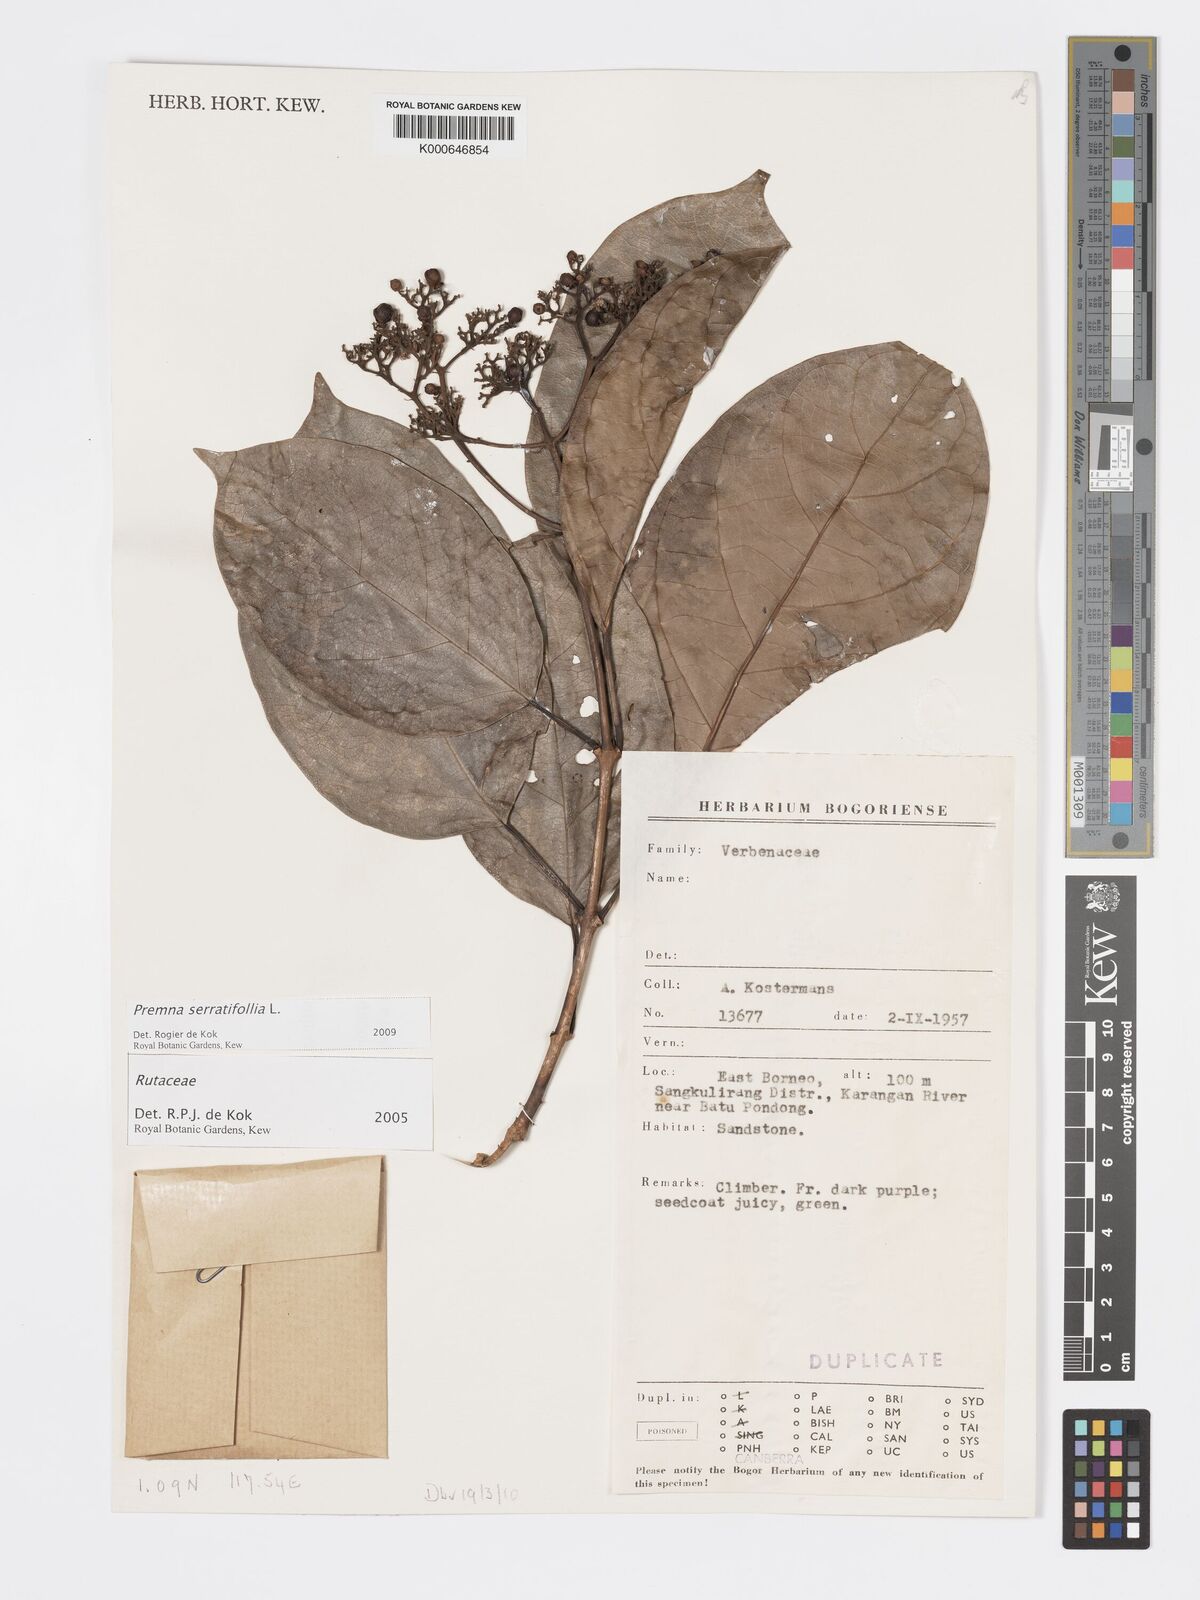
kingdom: Plantae
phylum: Tracheophyta
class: Magnoliopsida
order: Lamiales
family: Lamiaceae
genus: Premna
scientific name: Premna serratifolia
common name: Bastard guelder
